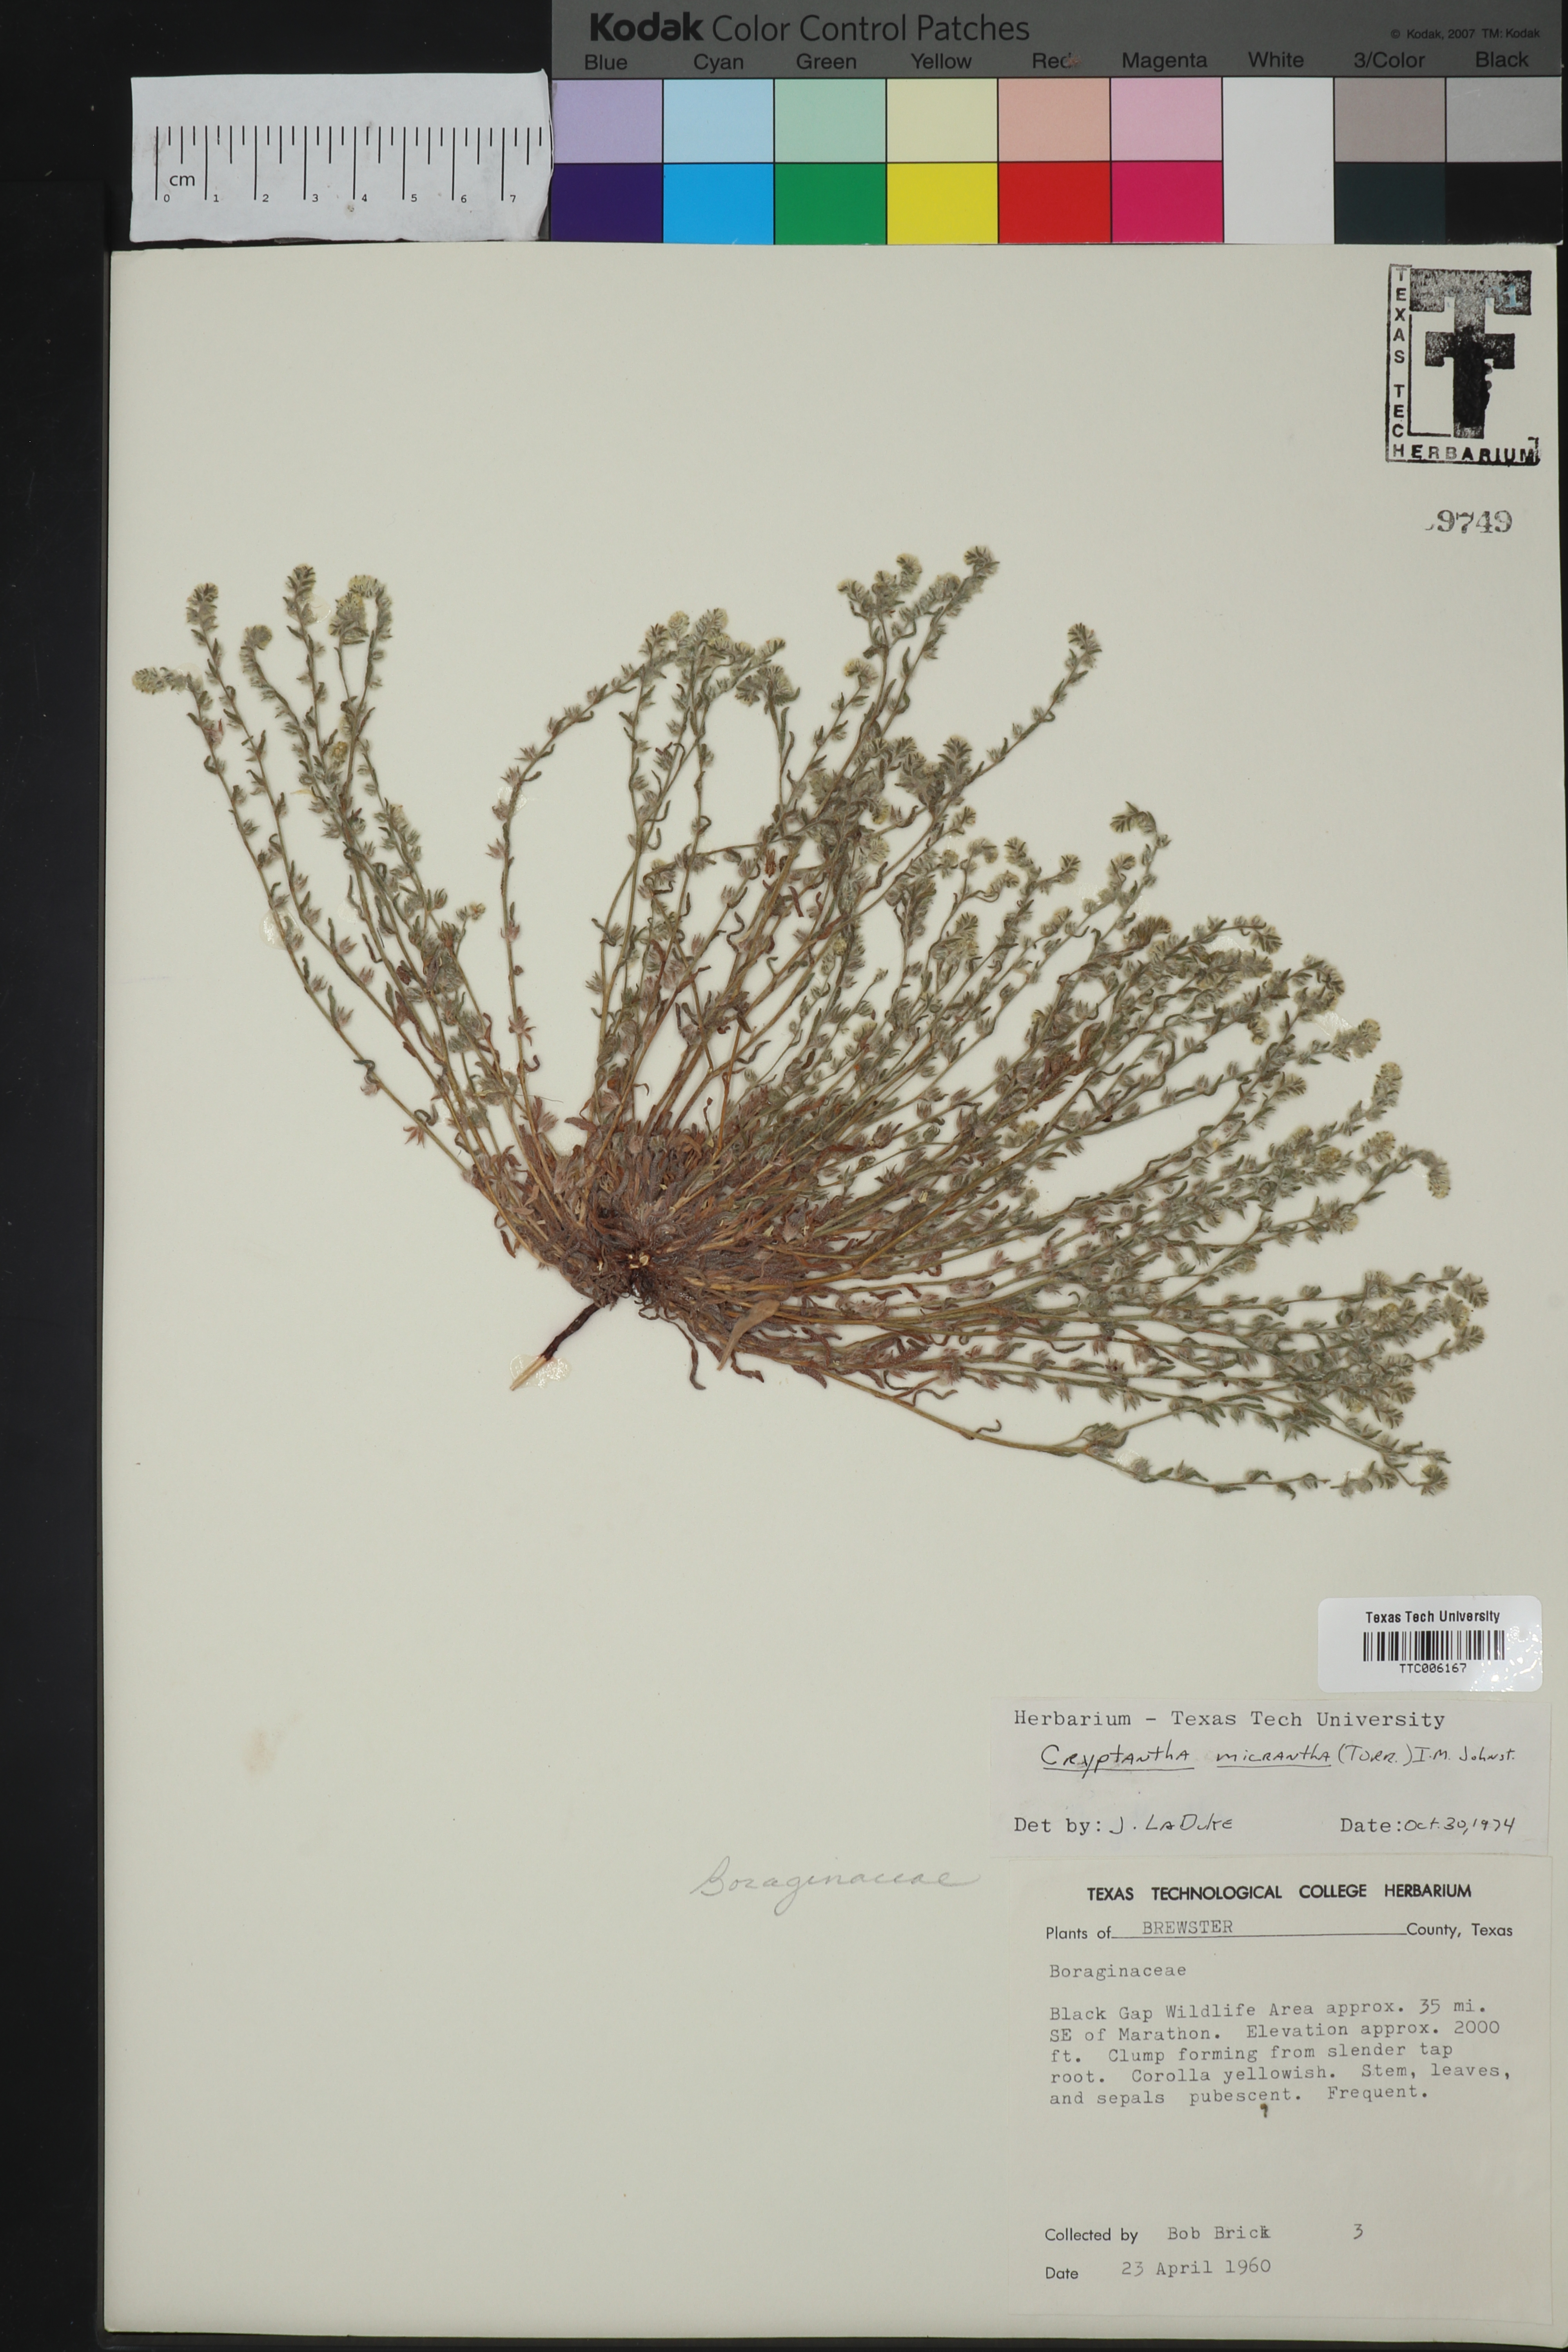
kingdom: Plantae
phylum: Tracheophyta
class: Magnoliopsida
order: Boraginales
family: Boraginaceae
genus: Eremocarya
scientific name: Eremocarya micrantha
